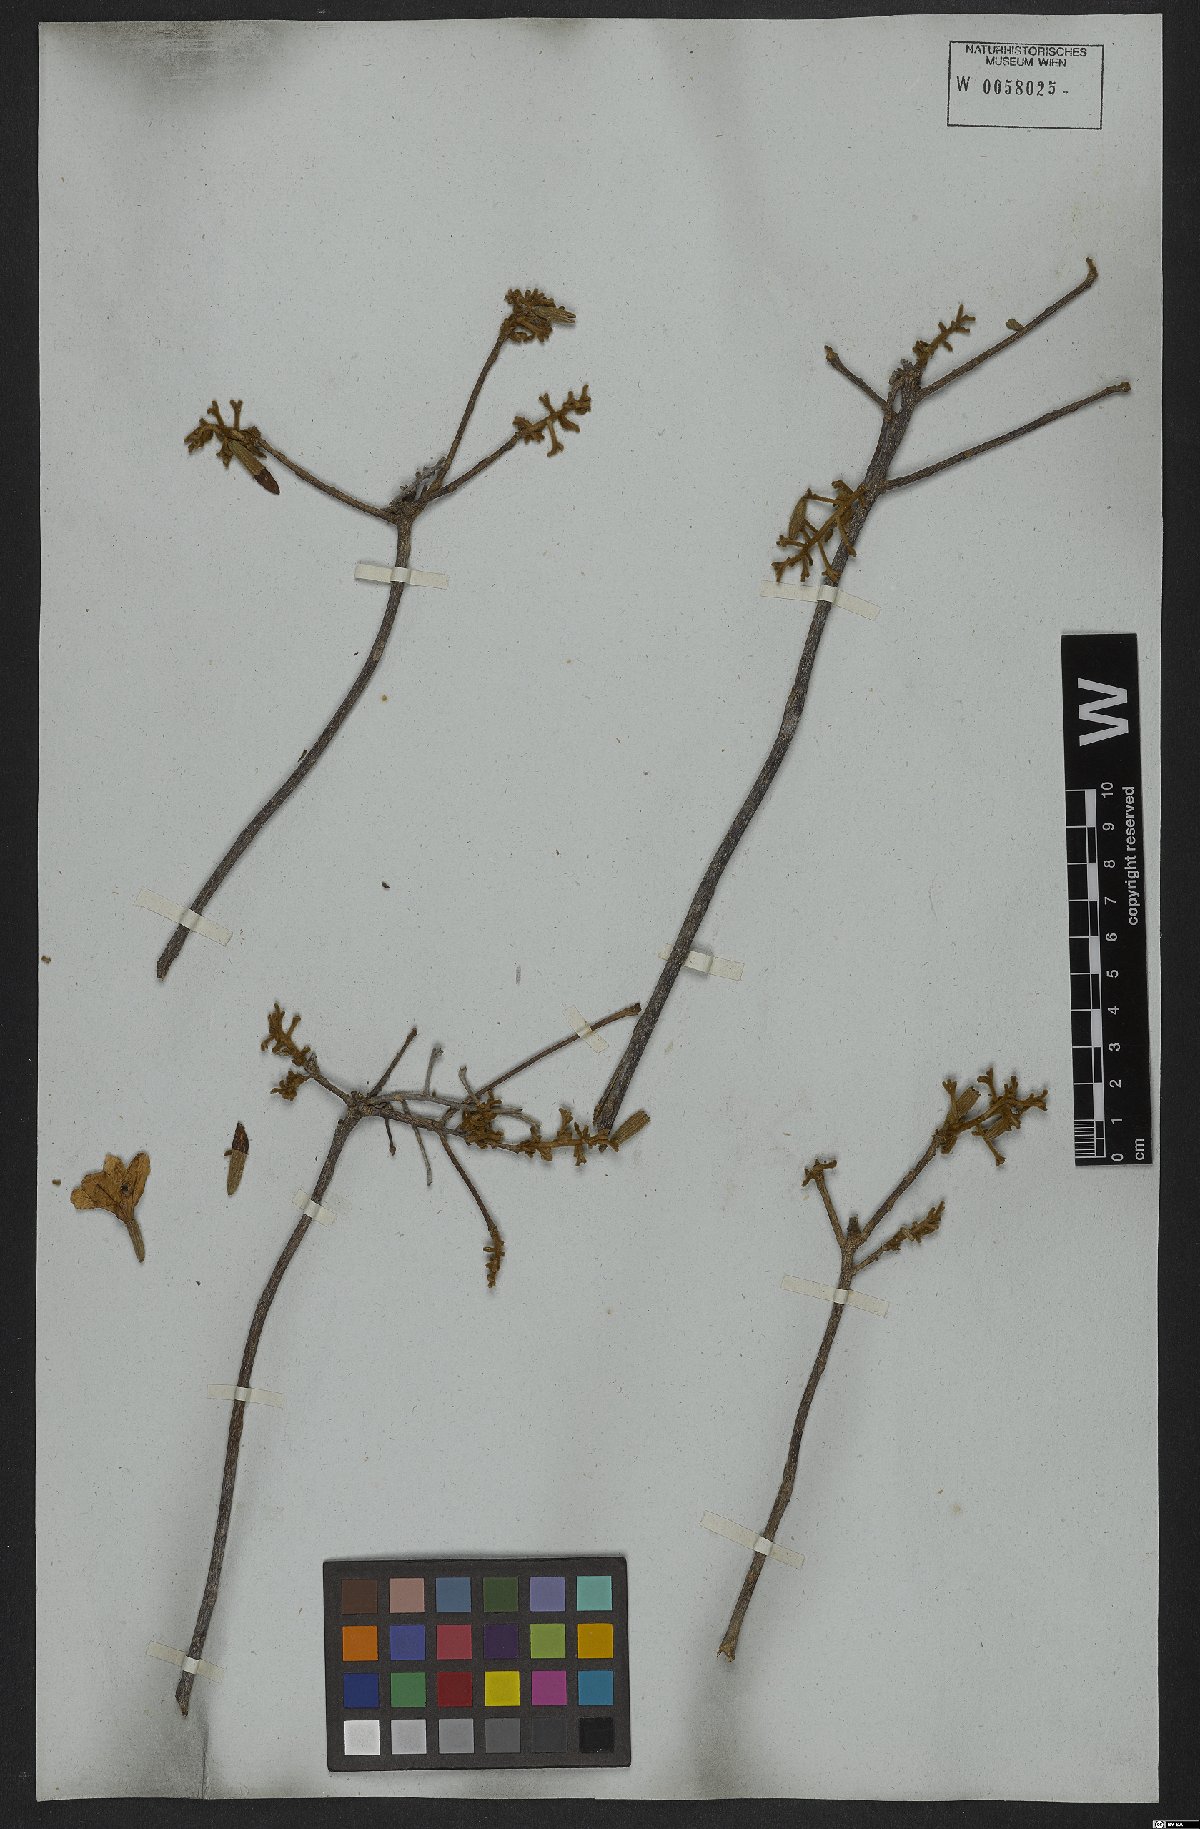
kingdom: Plantae
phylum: Tracheophyta
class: Magnoliopsida
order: Boraginales
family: Cordiaceae
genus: Cordia
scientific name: Cordia alliodora
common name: Spanish elm
